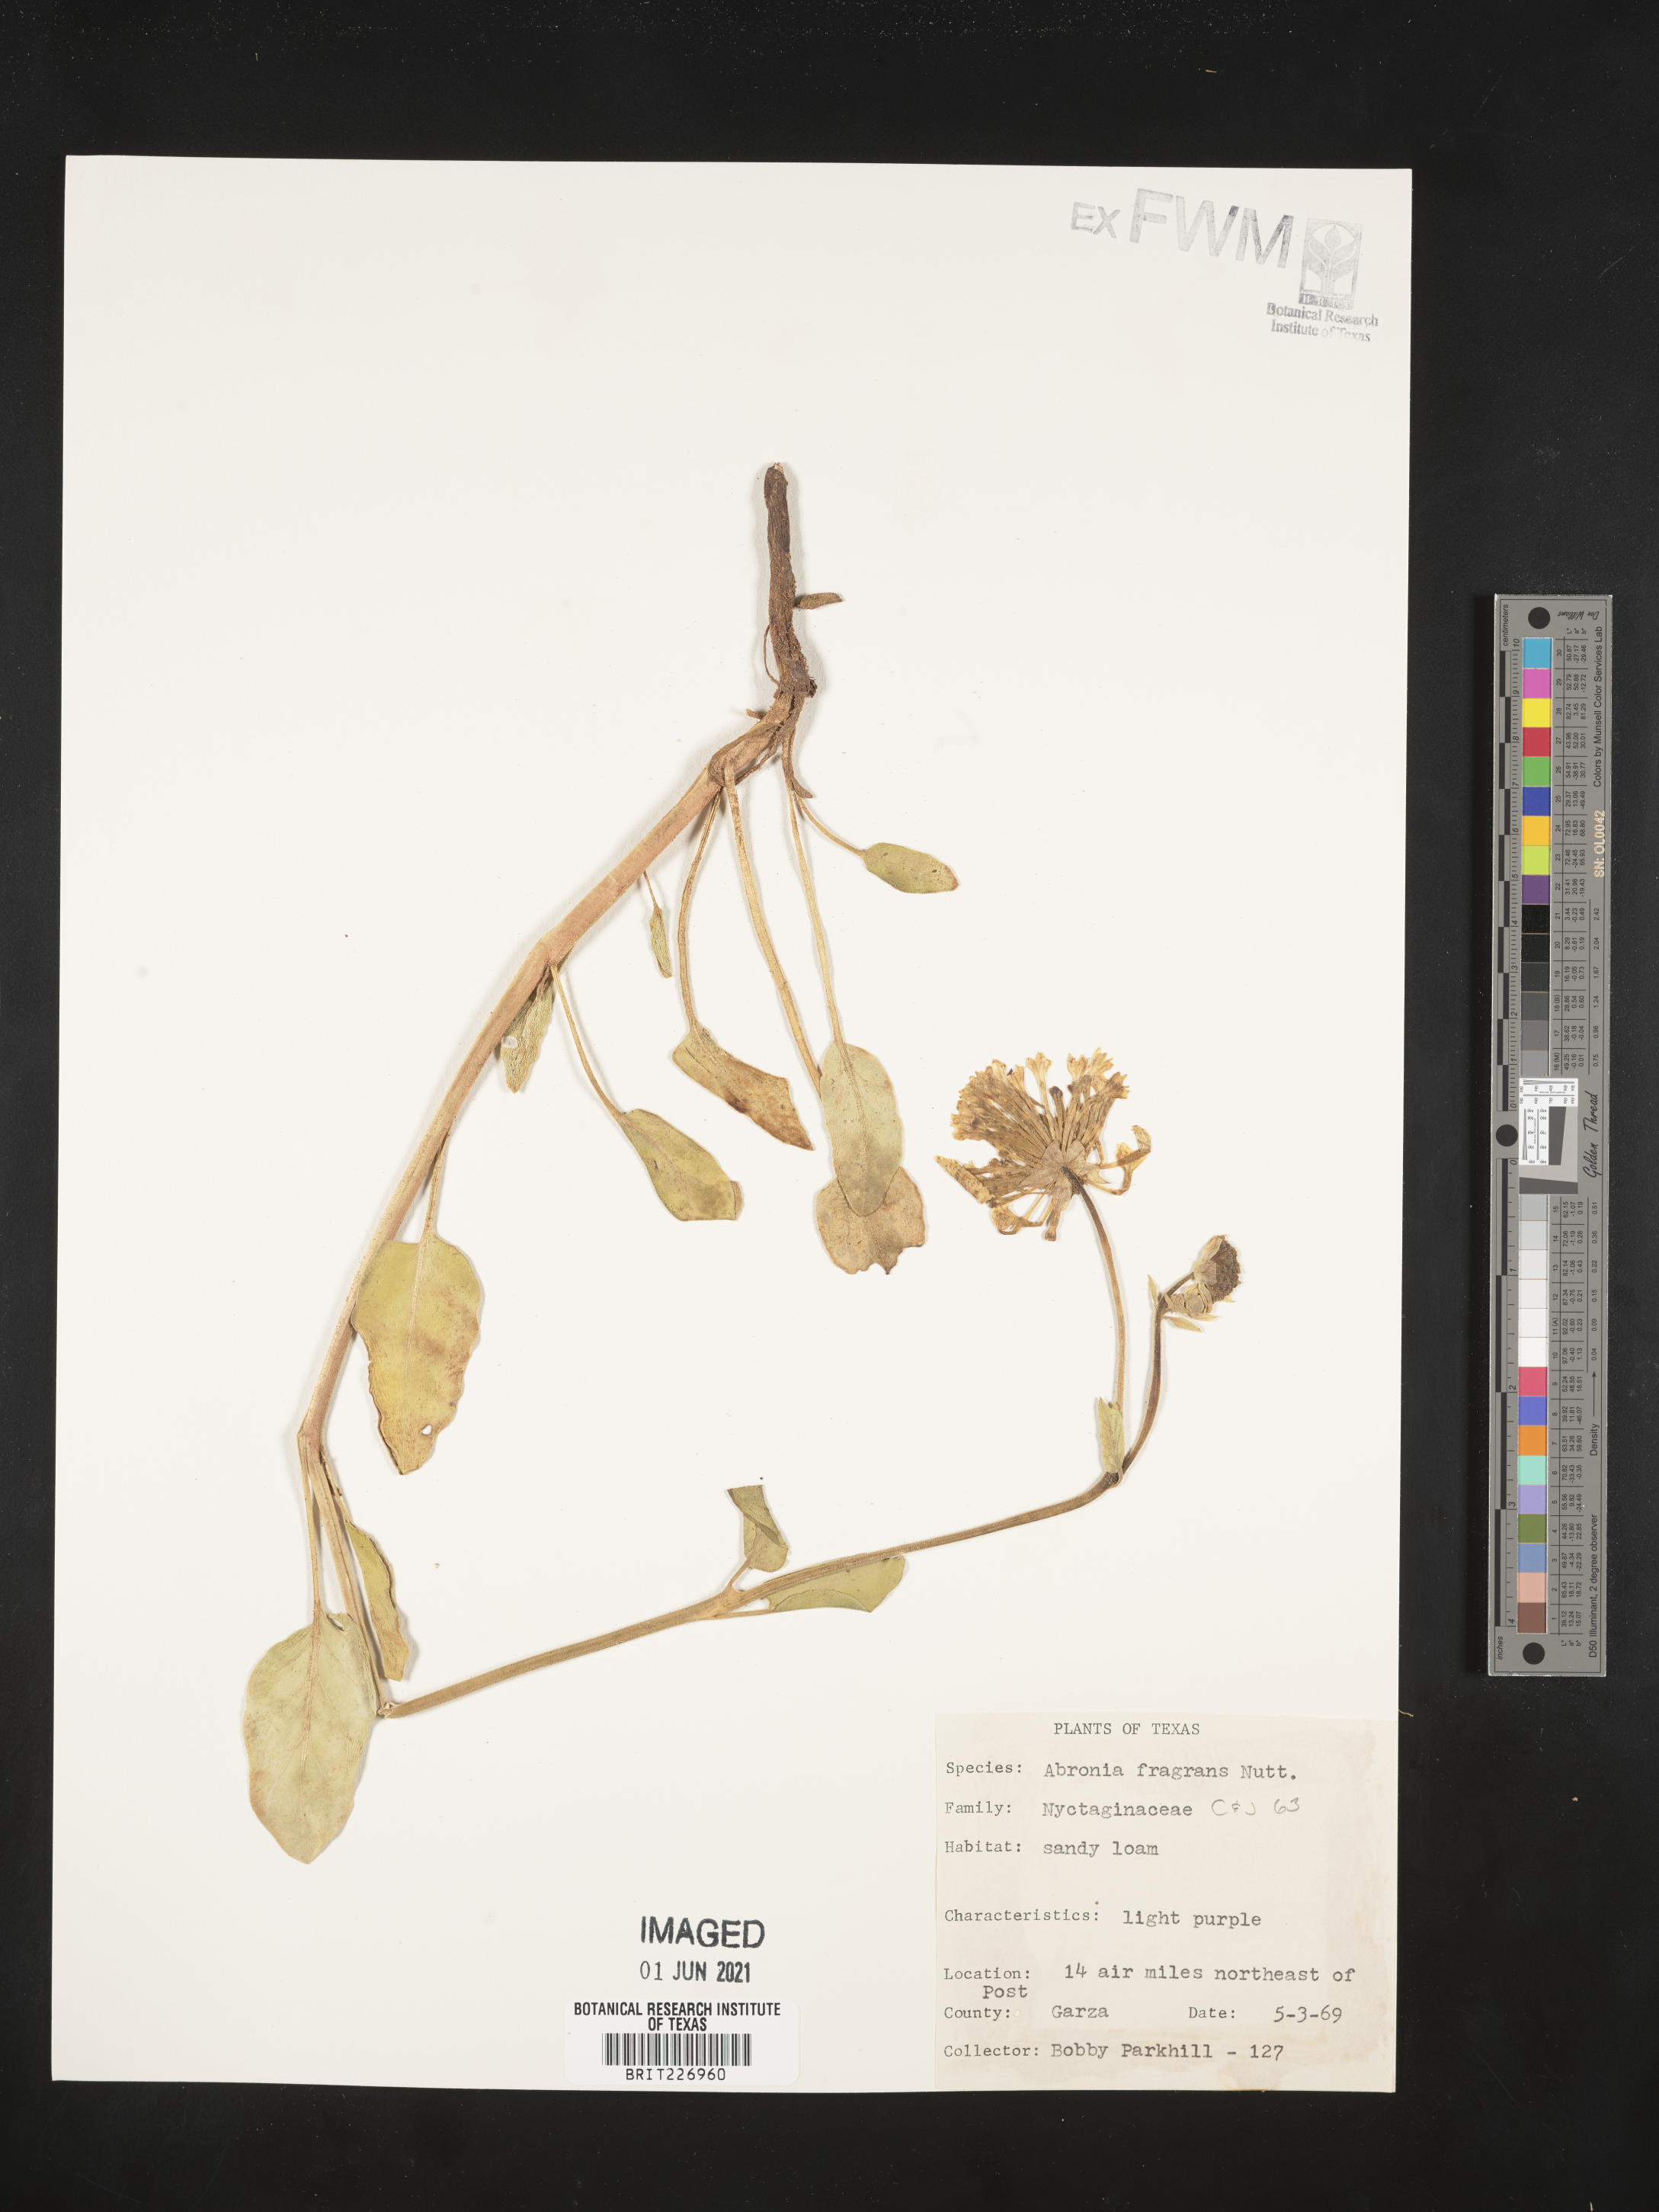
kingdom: Plantae
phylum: Tracheophyta
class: Magnoliopsida
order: Caryophyllales
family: Nyctaginaceae
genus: Abronia
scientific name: Abronia fragrans
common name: Fragrant sand-verbena
